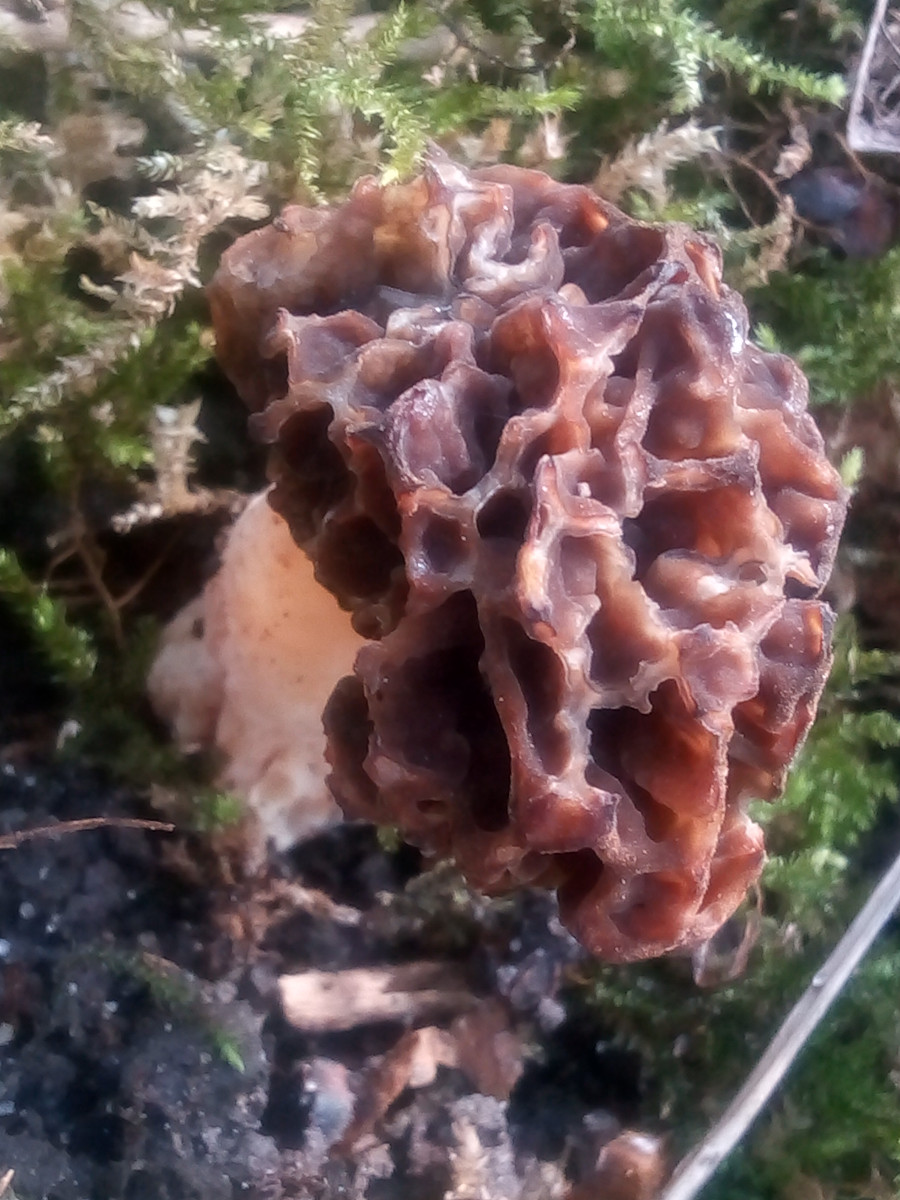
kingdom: Fungi
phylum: Ascomycota
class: Pezizomycetes
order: Pezizales
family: Morchellaceae
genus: Morchella
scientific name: Morchella esculenta
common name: spiselig morkel
